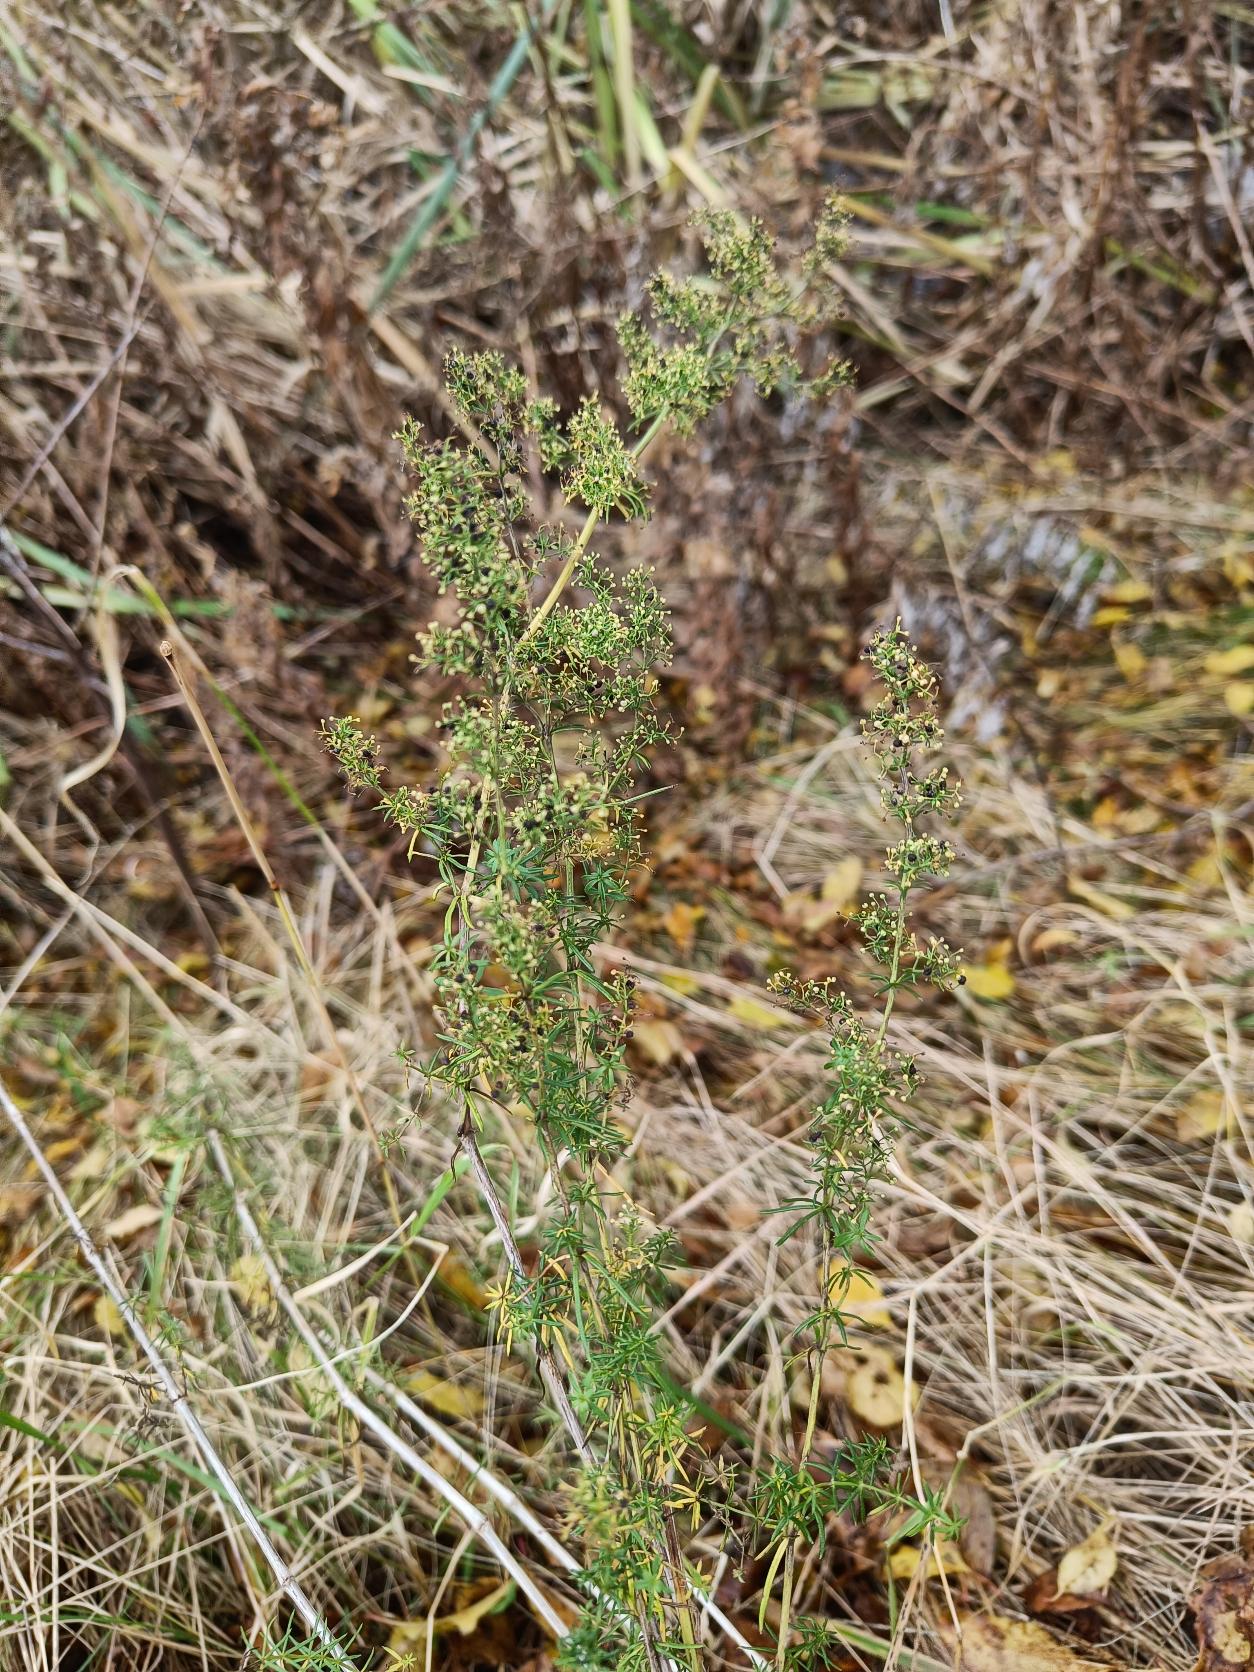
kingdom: Plantae
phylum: Tracheophyta
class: Magnoliopsida
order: Gentianales
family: Rubiaceae
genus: Galium
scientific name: Galium verum
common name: Gul snerre
